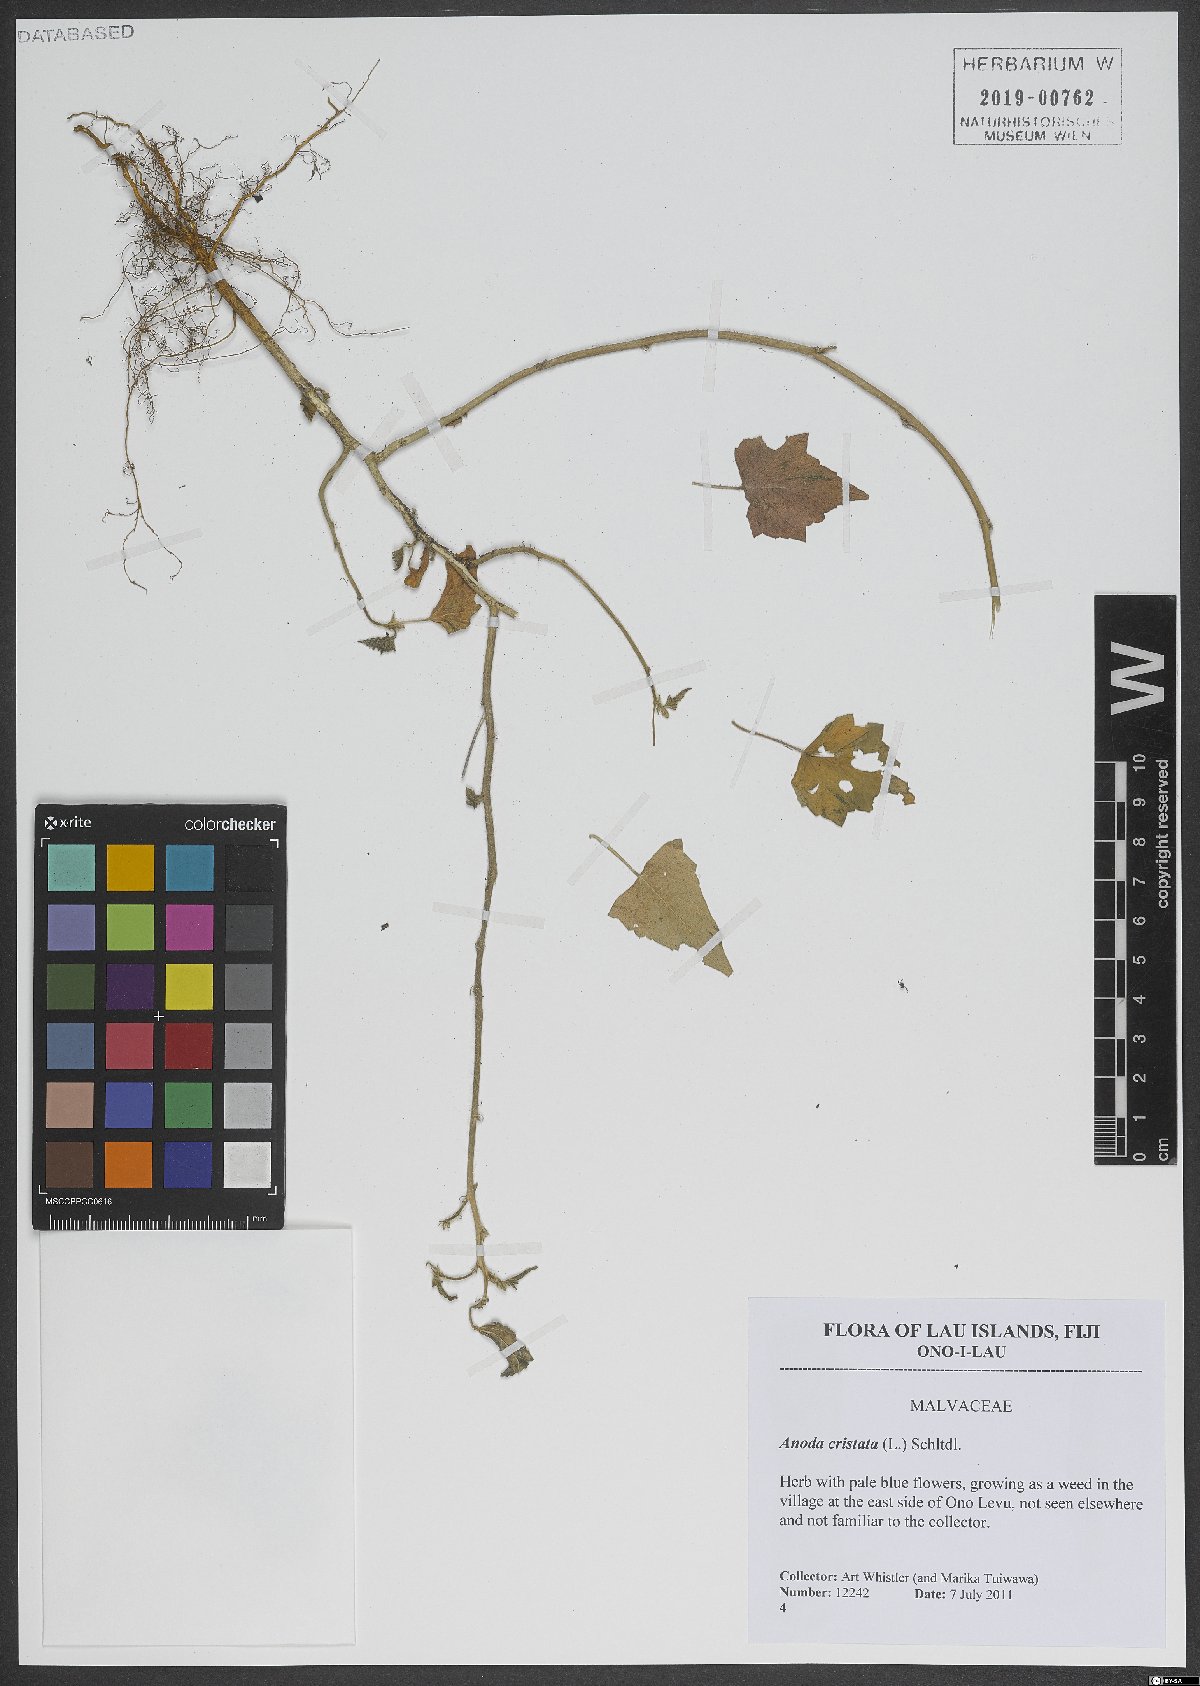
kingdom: Plantae
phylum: Tracheophyta
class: Magnoliopsida
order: Malvales
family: Malvaceae
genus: Anoda
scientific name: Anoda cristata
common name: Spurred anoda
